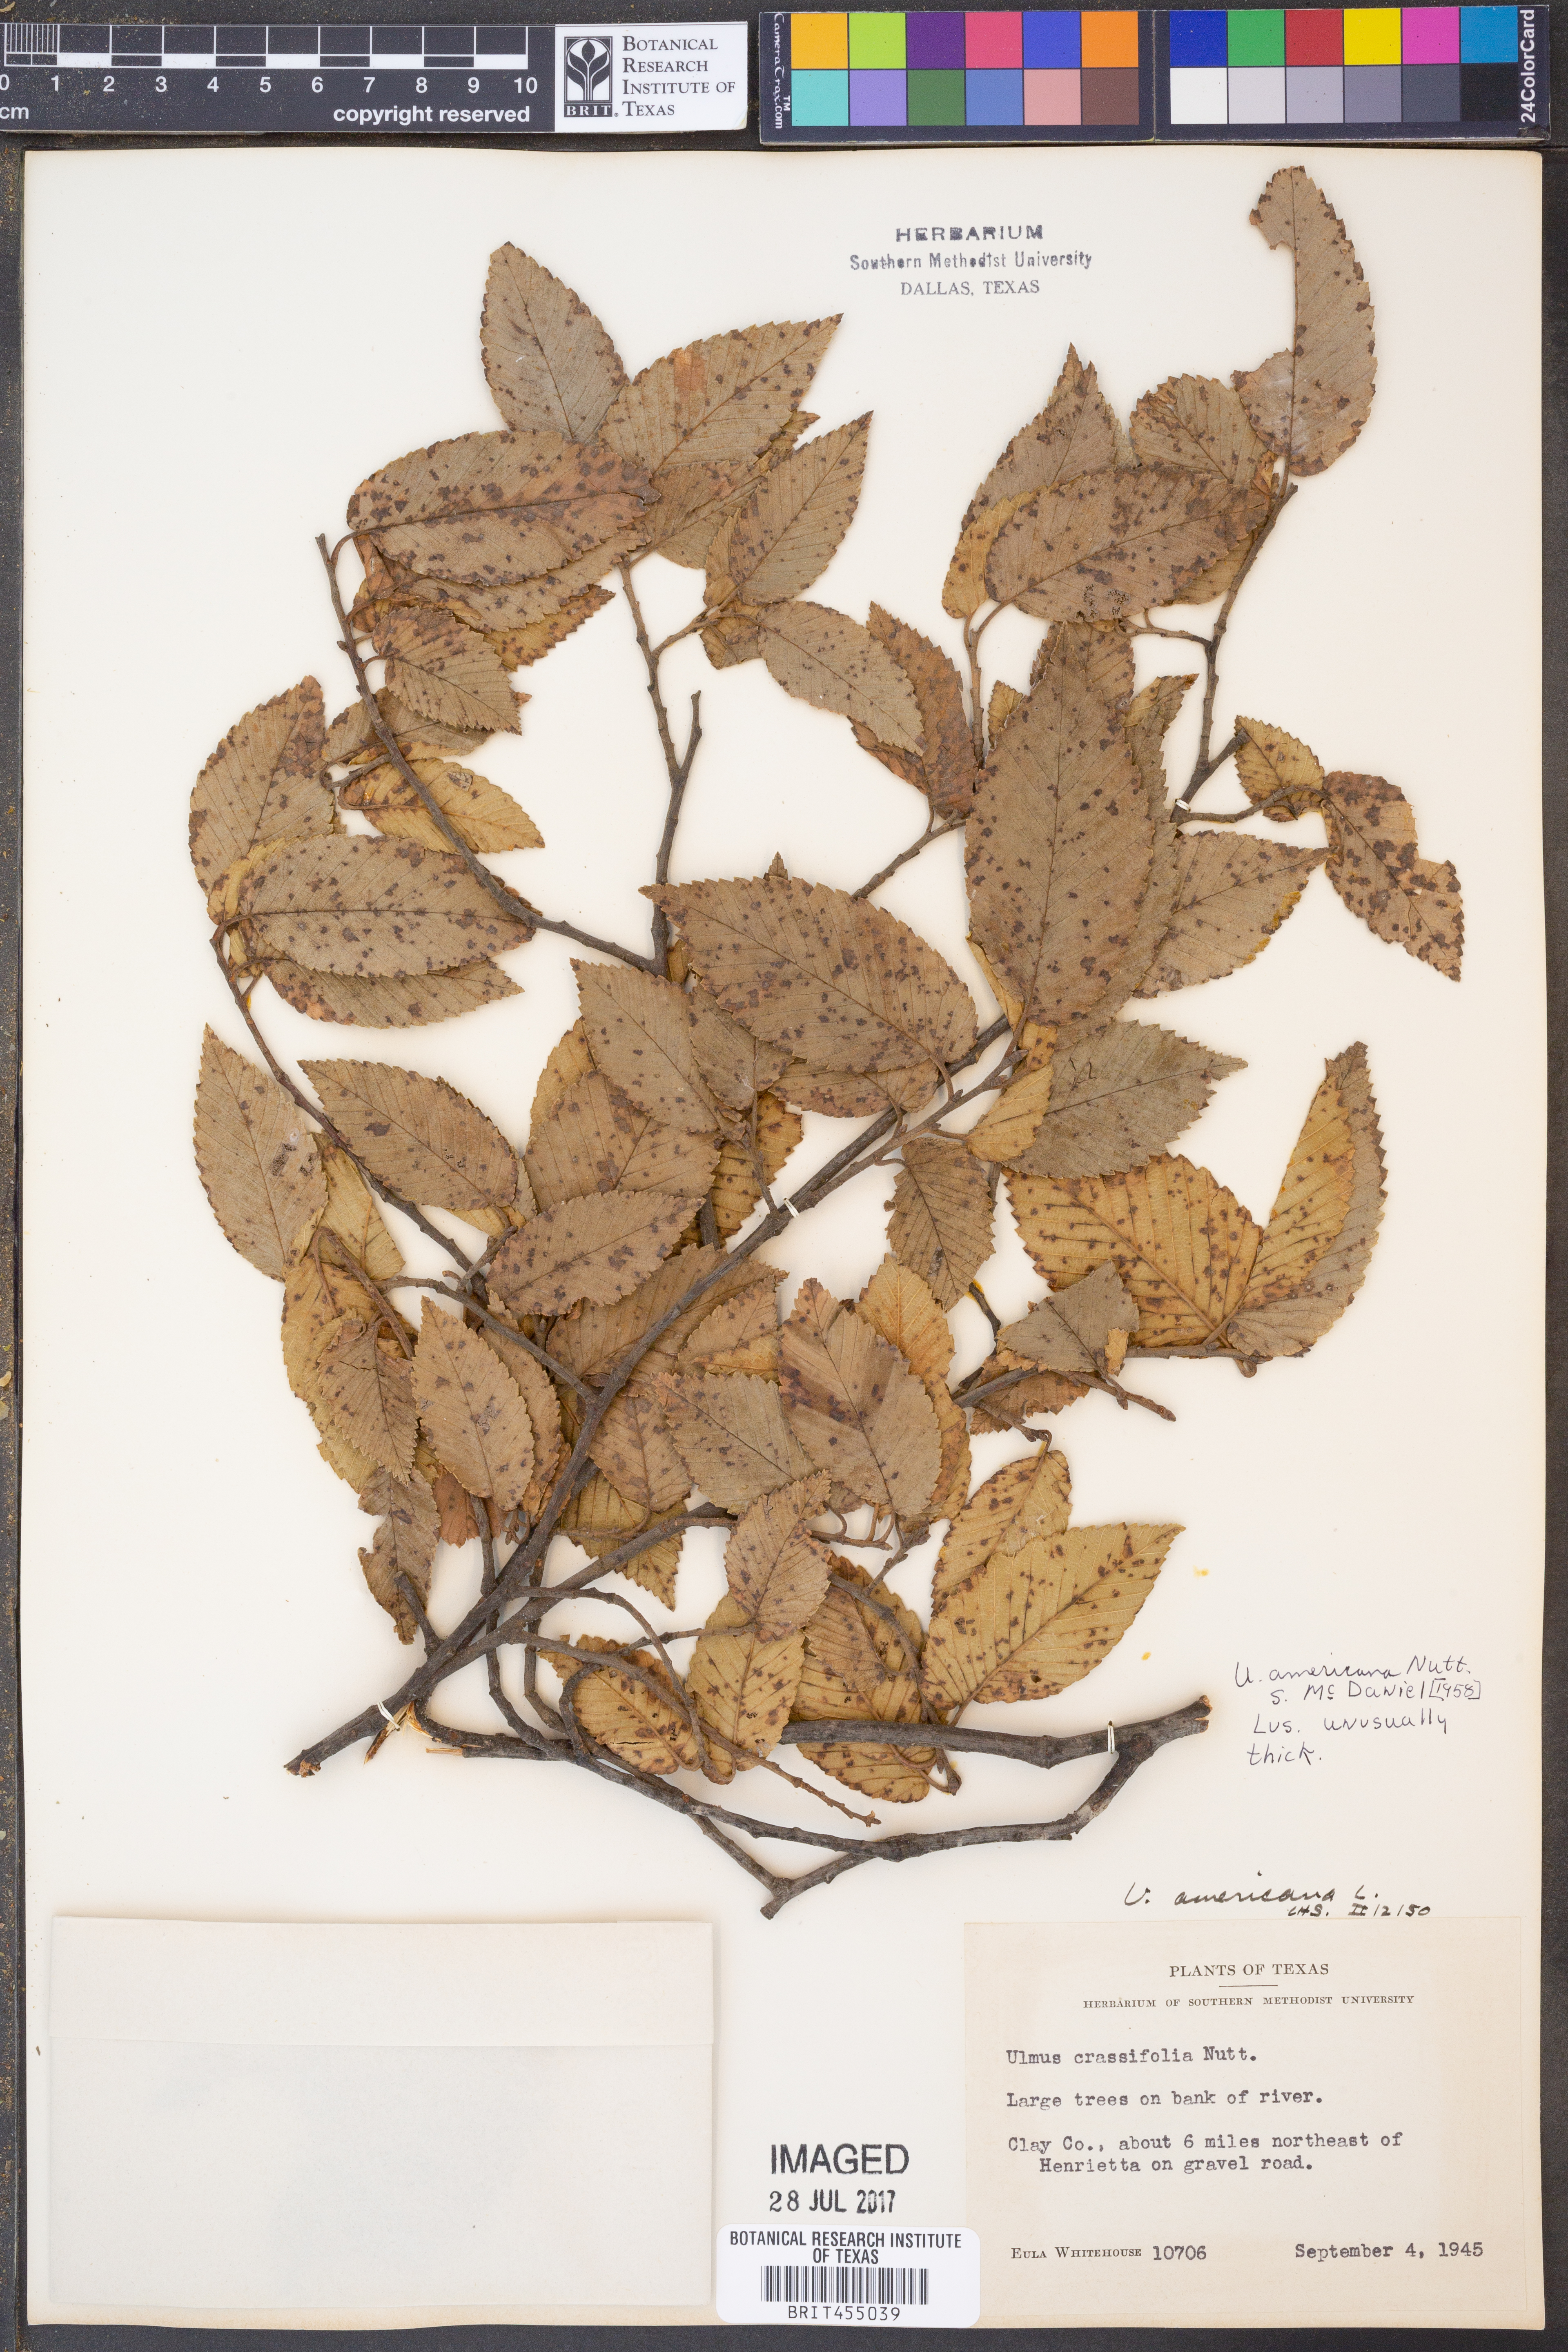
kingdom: Plantae
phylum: Tracheophyta
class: Magnoliopsida
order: Rosales
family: Ulmaceae
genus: Ulmus
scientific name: Ulmus americana
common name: American elm
